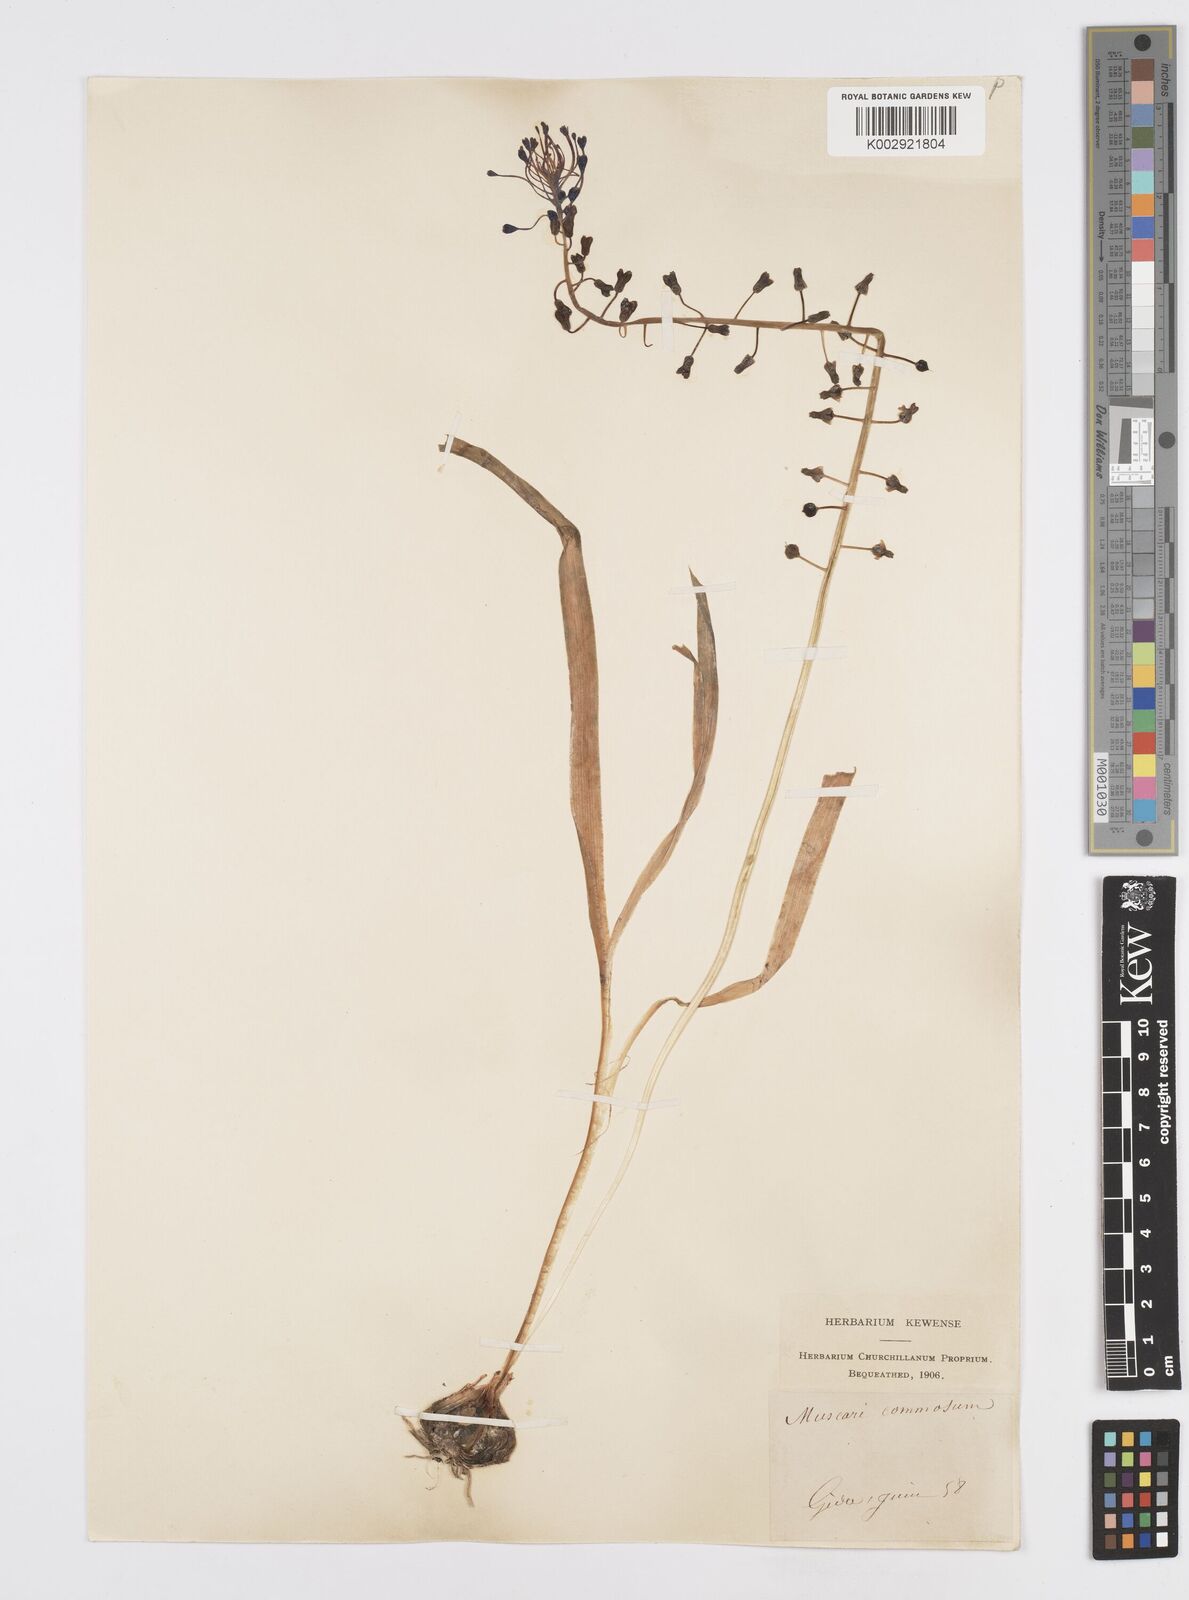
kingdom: Plantae
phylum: Tracheophyta
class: Liliopsida
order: Asparagales
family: Asparagaceae
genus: Muscari
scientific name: Muscari comosum
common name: Tassel hyacinth
